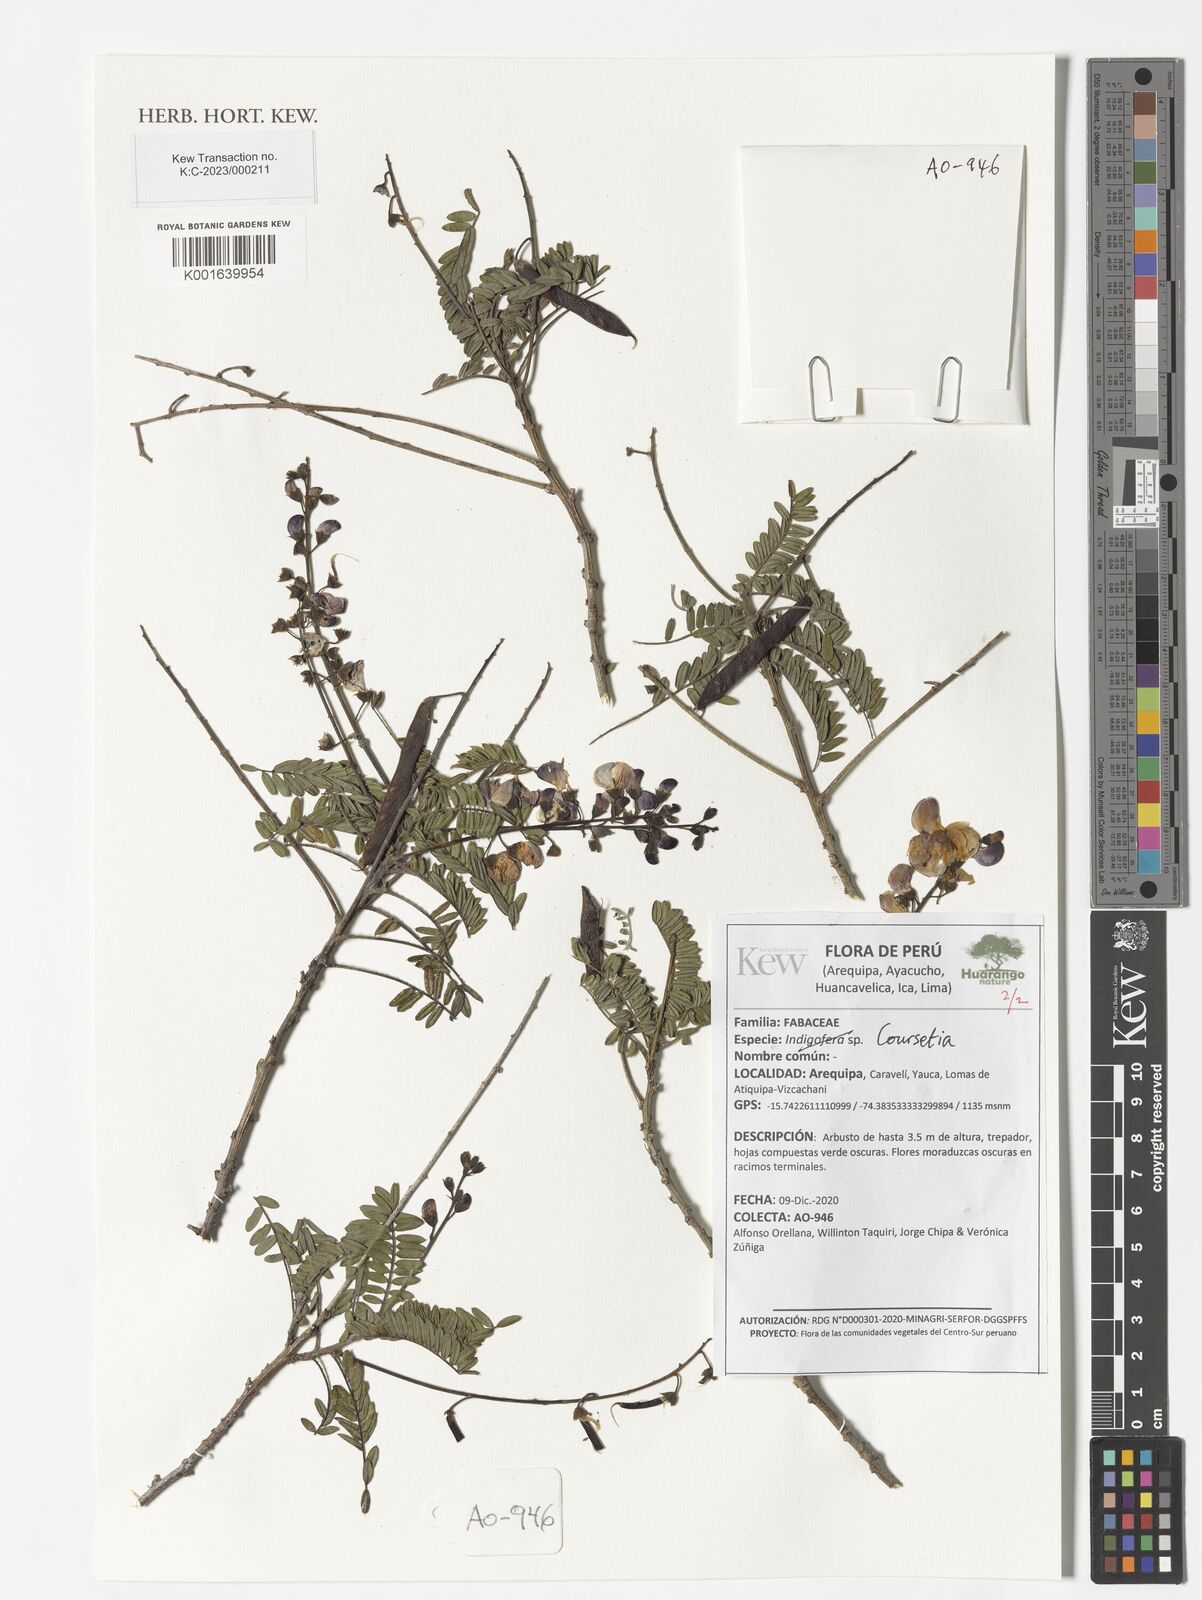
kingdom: Plantae
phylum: Tracheophyta
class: Magnoliopsida
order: Fabales
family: Fabaceae
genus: Coursetia
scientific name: Coursetia
